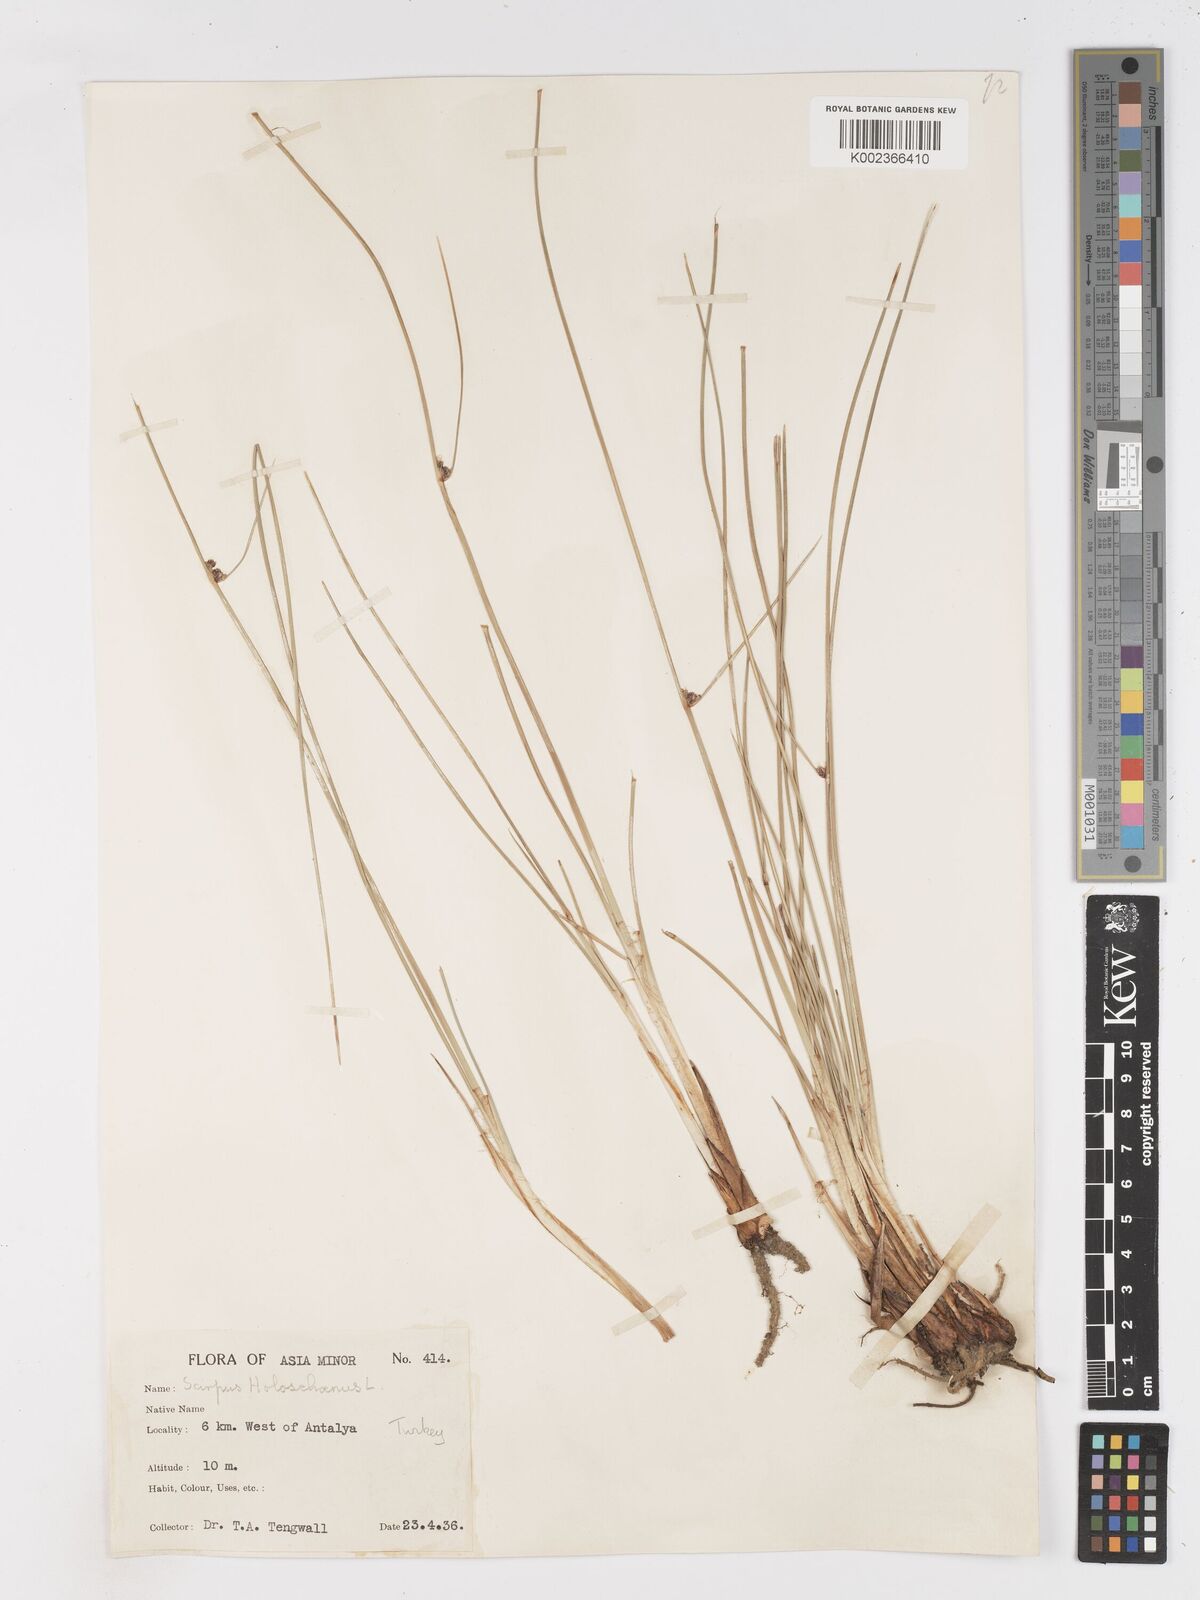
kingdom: Plantae
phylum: Tracheophyta
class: Liliopsida
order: Poales
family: Cyperaceae
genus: Scirpoides
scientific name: Scirpoides holoschoenus
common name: Round-headed club-rush
